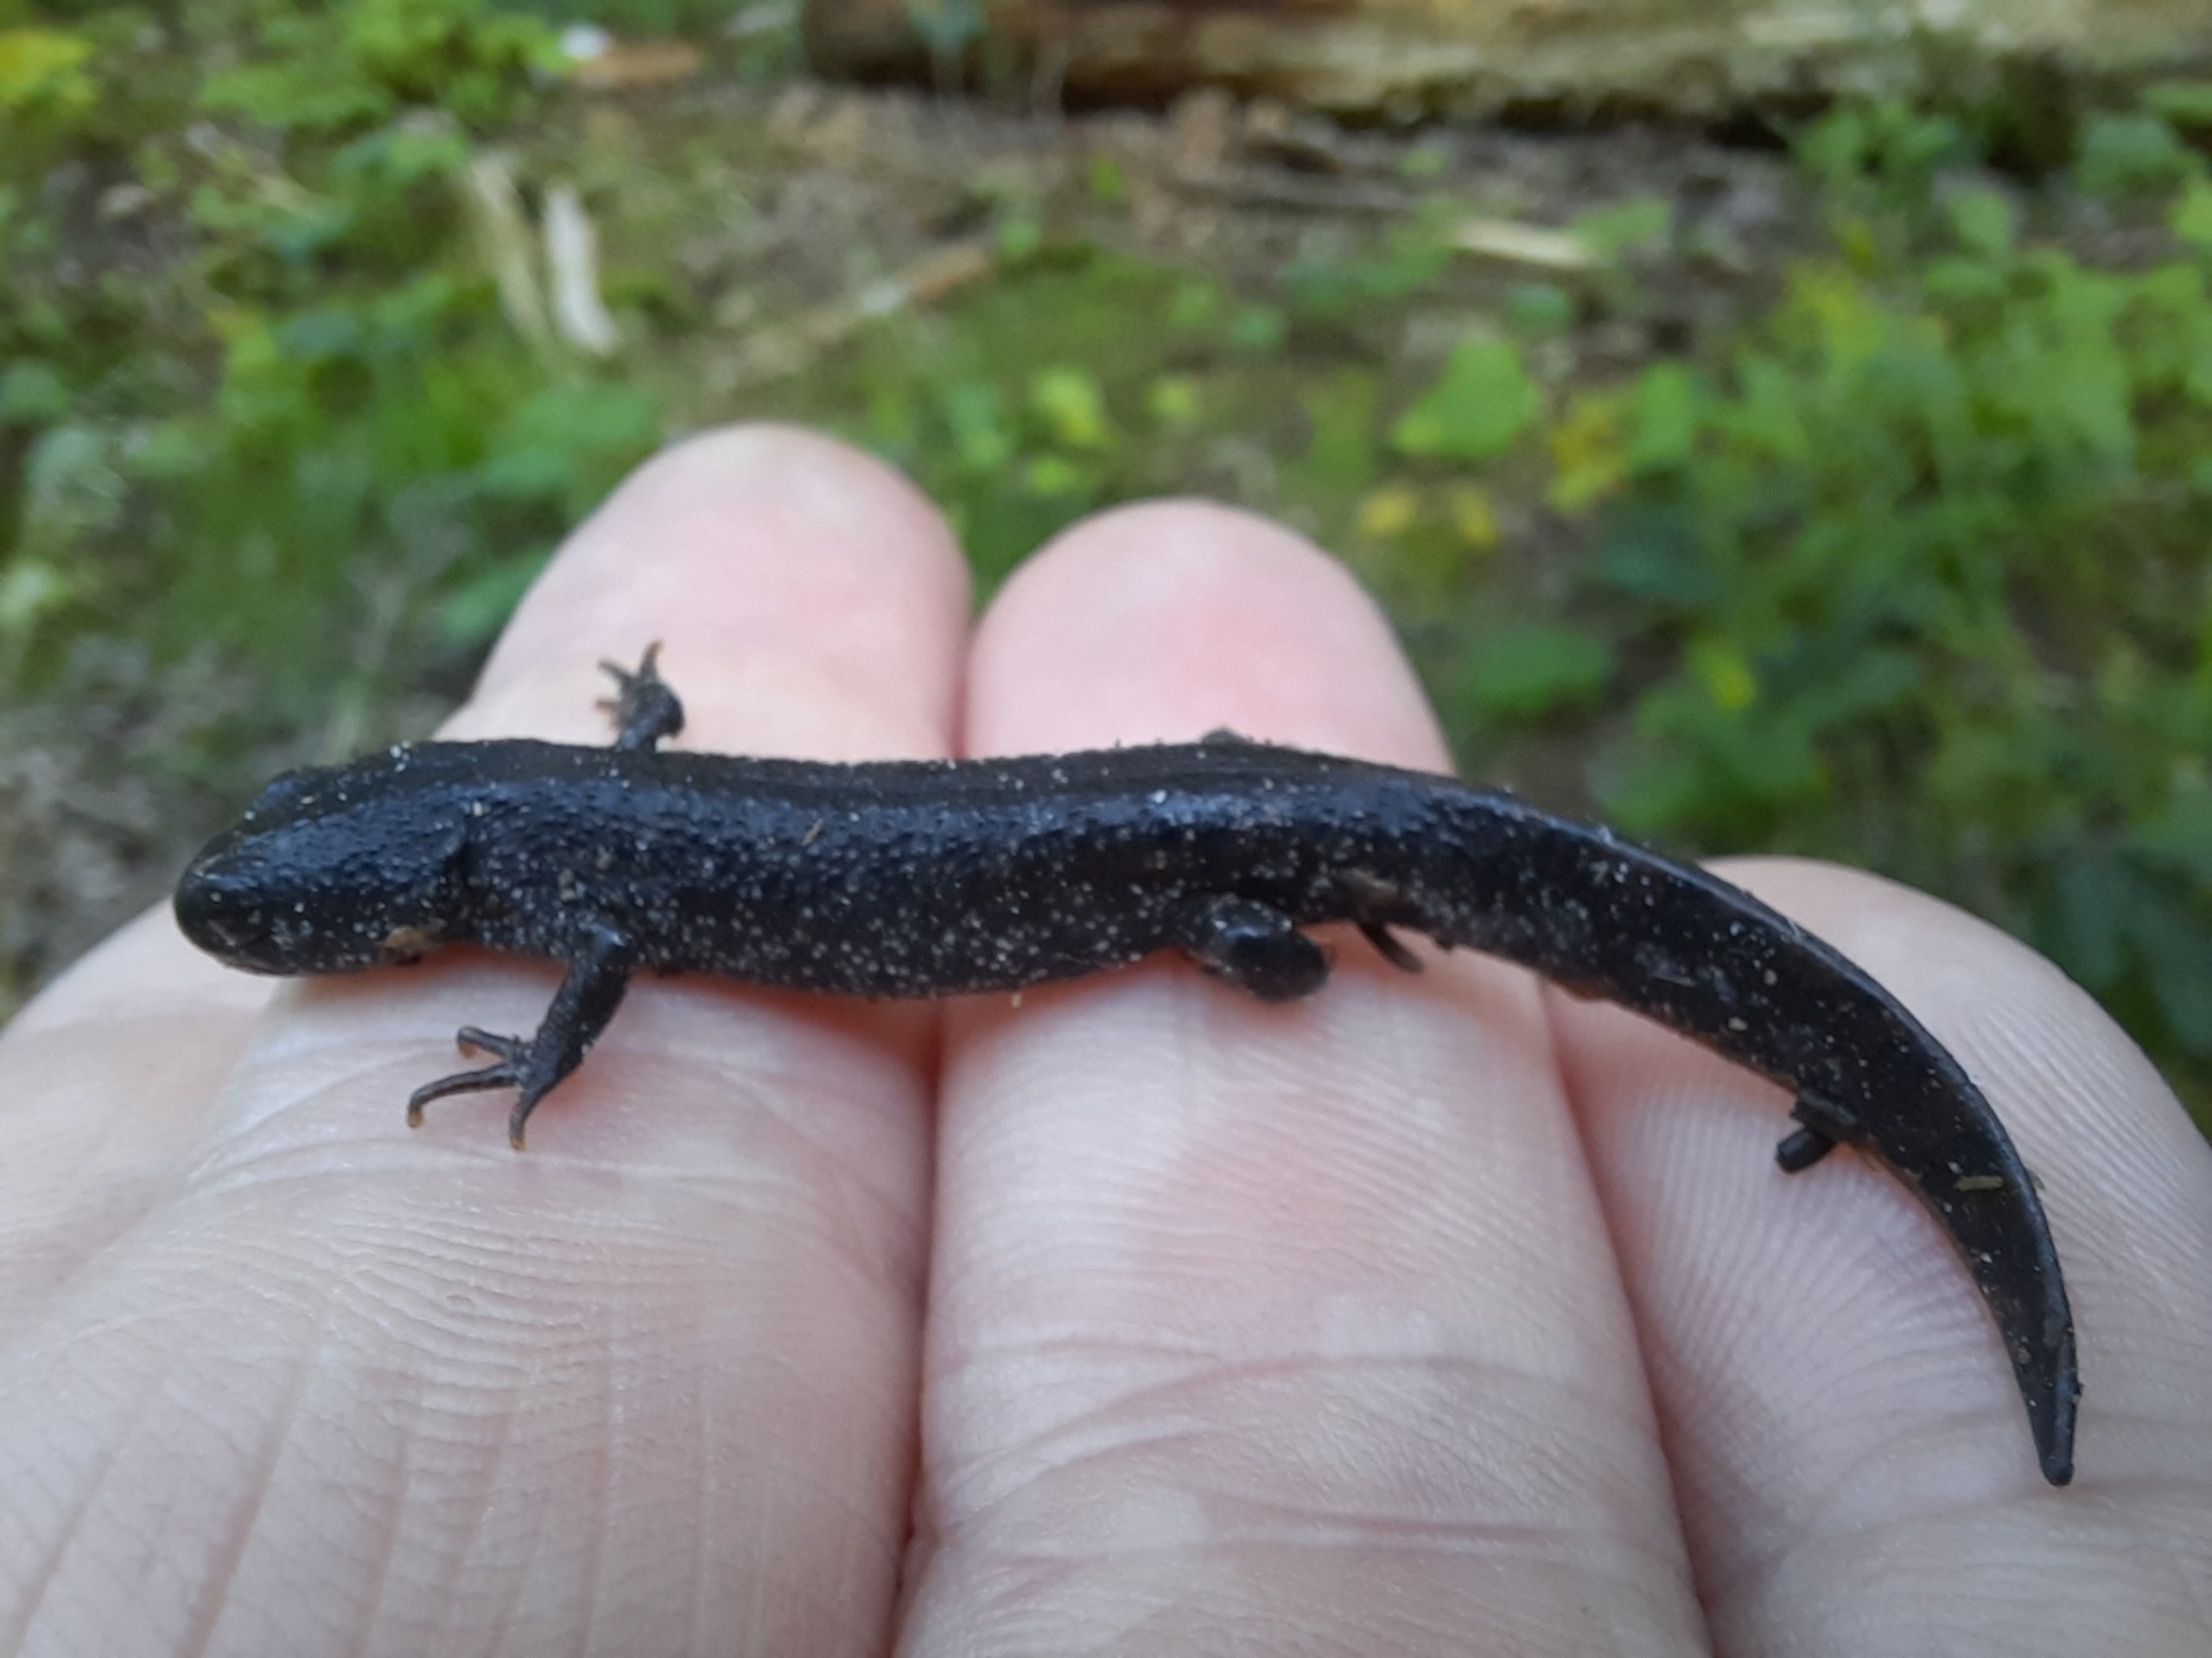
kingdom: Animalia
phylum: Chordata
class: Amphibia
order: Caudata
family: Salamandridae
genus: Triturus
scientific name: Triturus cristatus
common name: Stor vandsalamander
